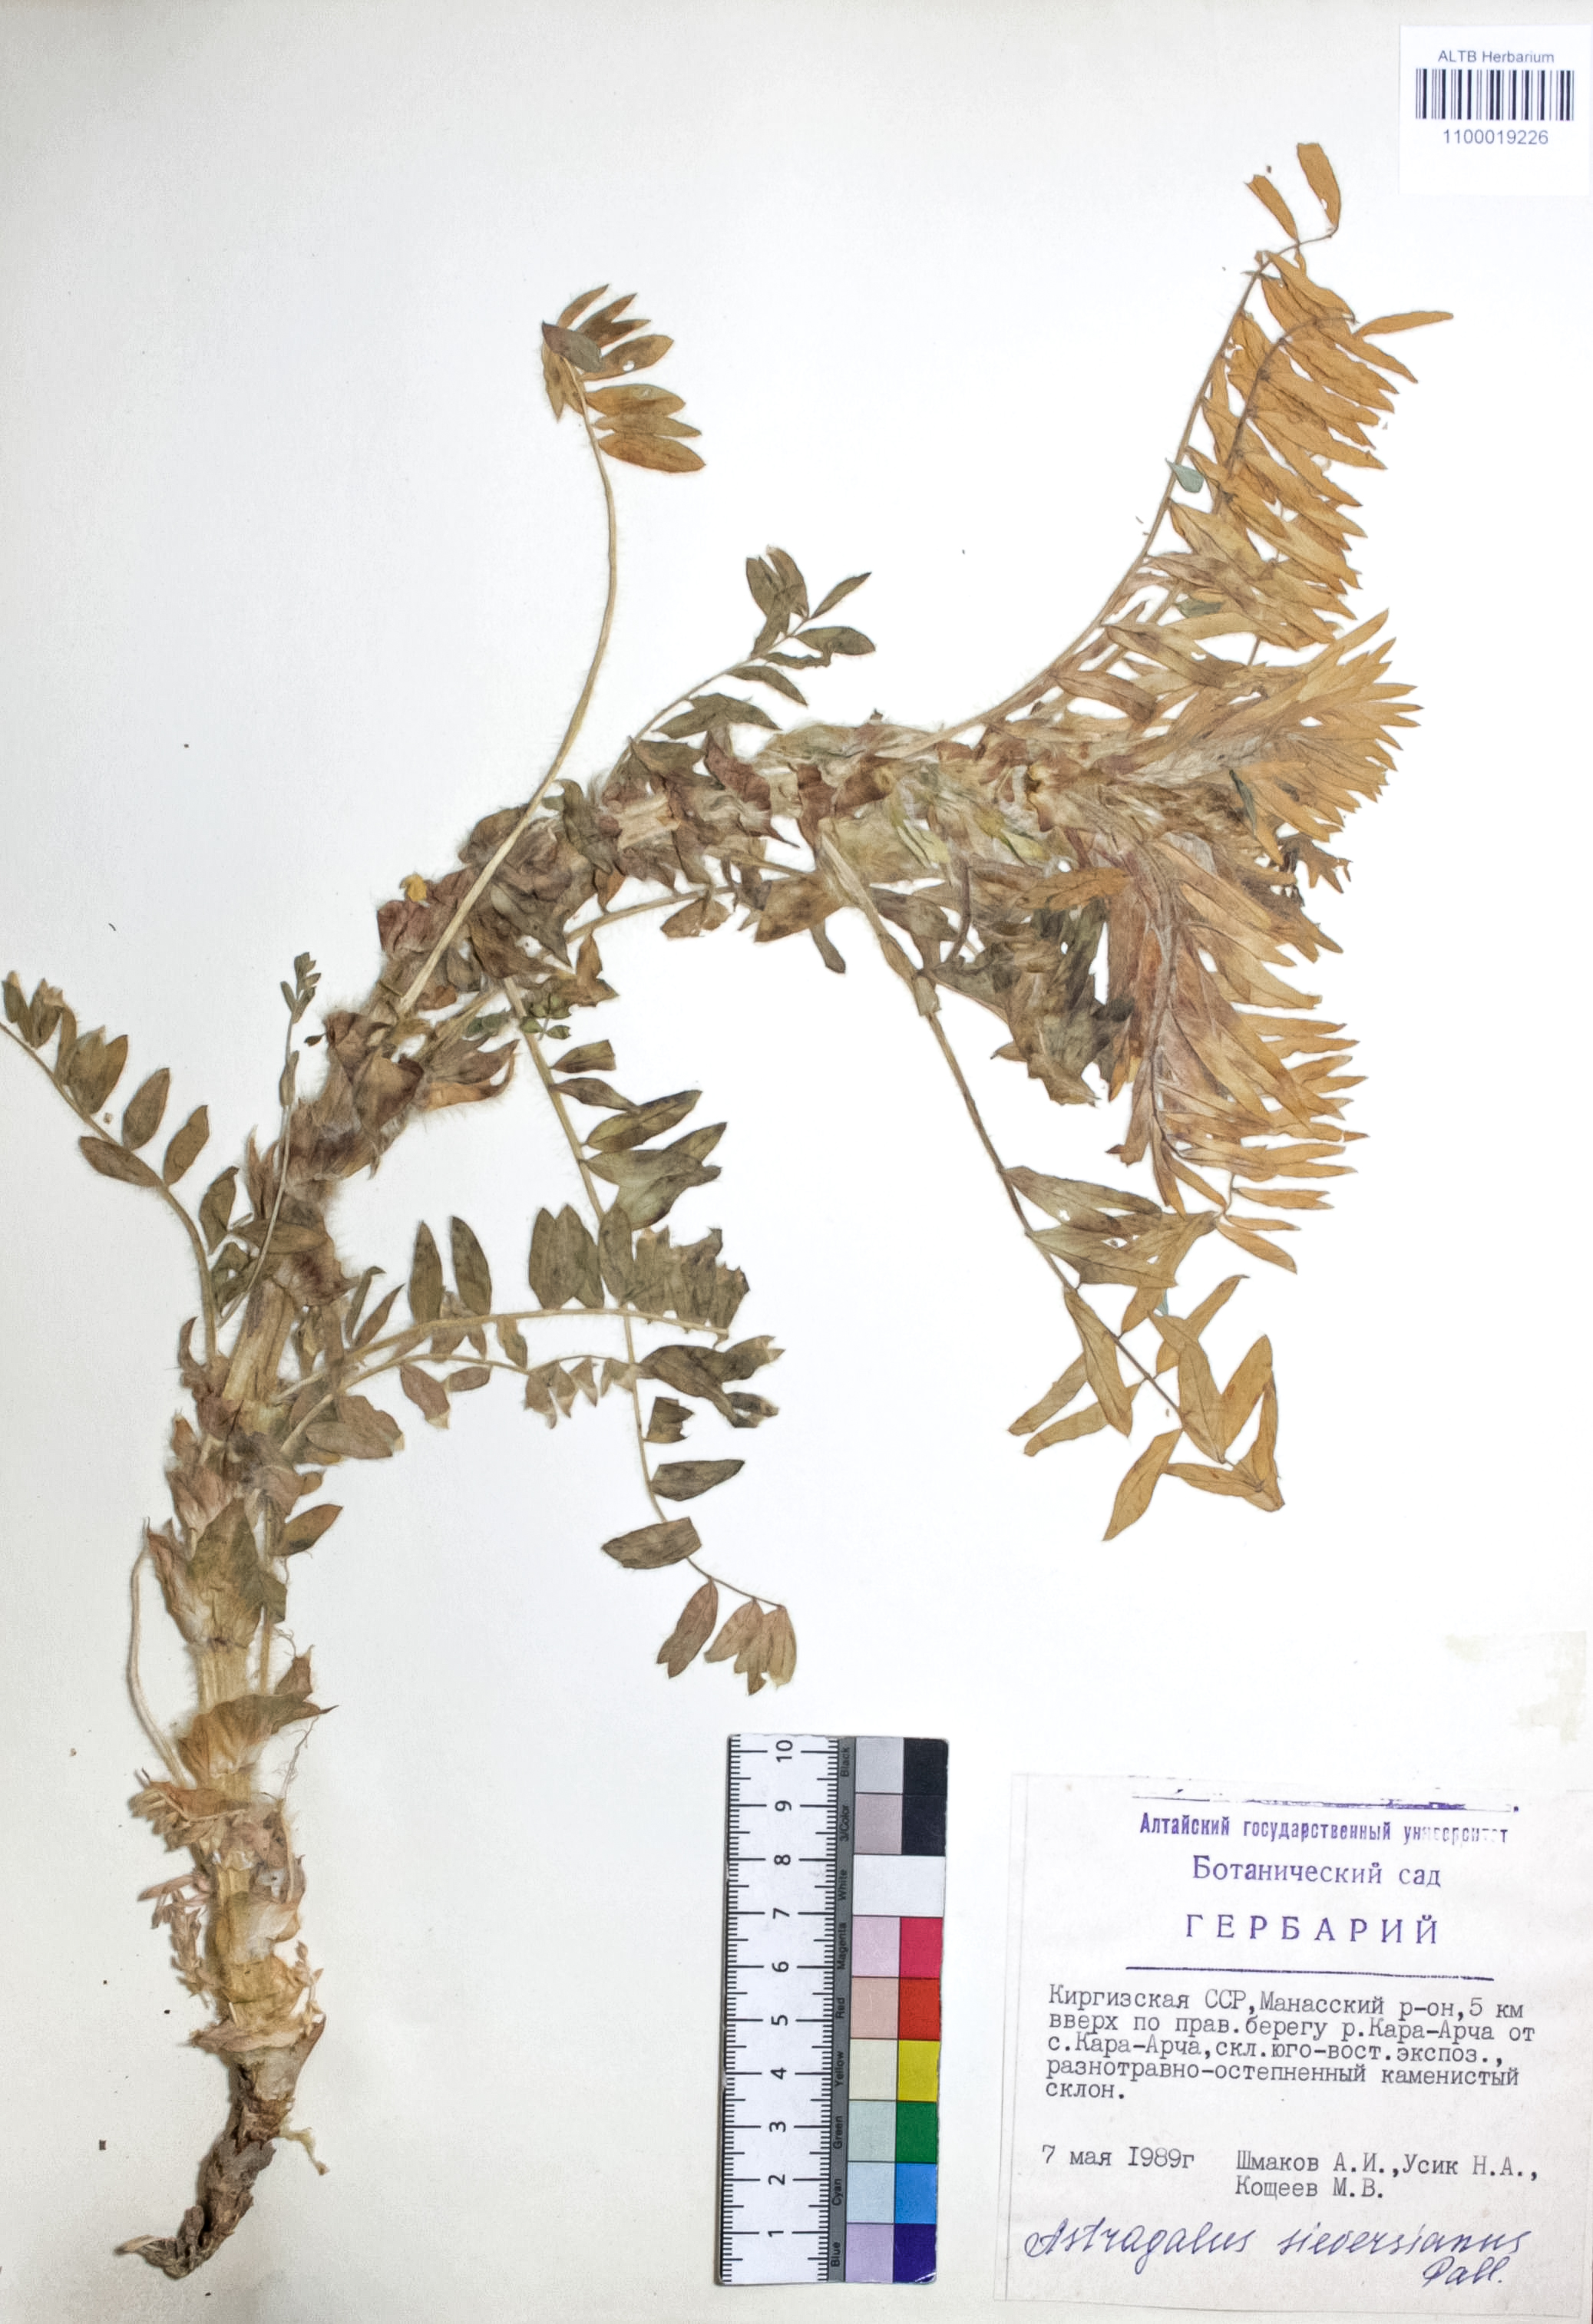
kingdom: Plantae
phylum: Tracheophyta
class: Magnoliopsida
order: Fabales
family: Fabaceae
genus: Astragalus
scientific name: Astragalus sieversianus
